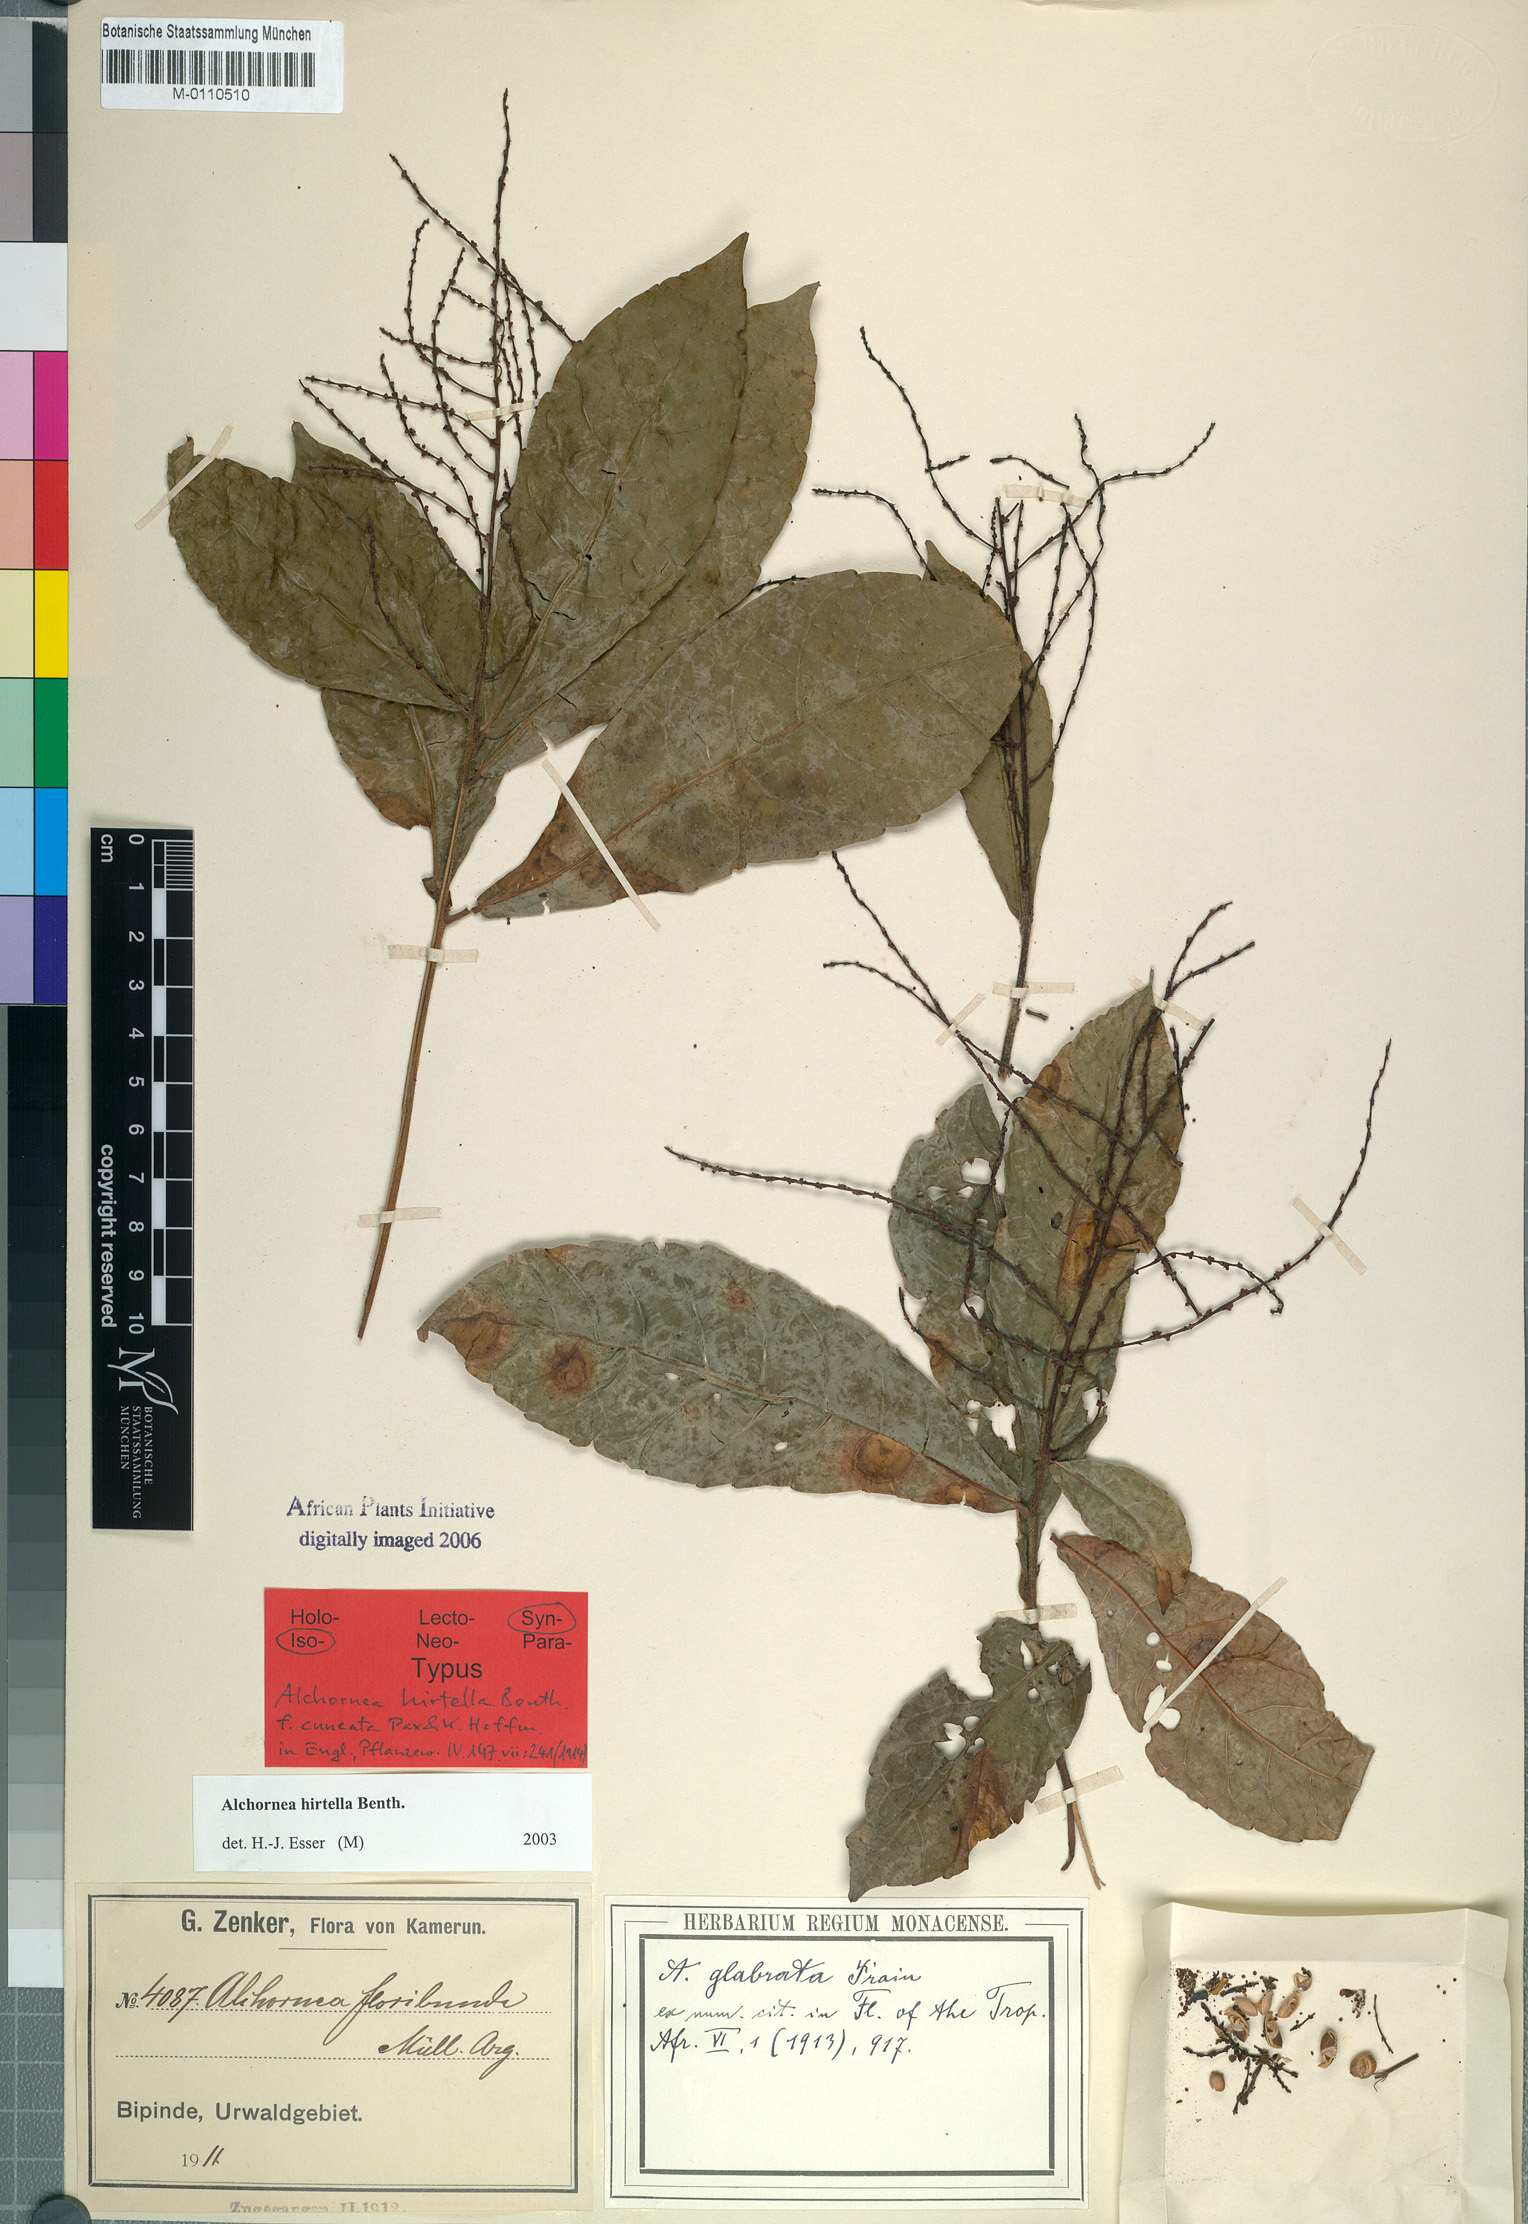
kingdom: Plantae
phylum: Tracheophyta
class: Magnoliopsida
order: Malpighiales
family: Euphorbiaceae
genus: Alchornea
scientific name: Alchornea hirtella
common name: Forest bead-string
